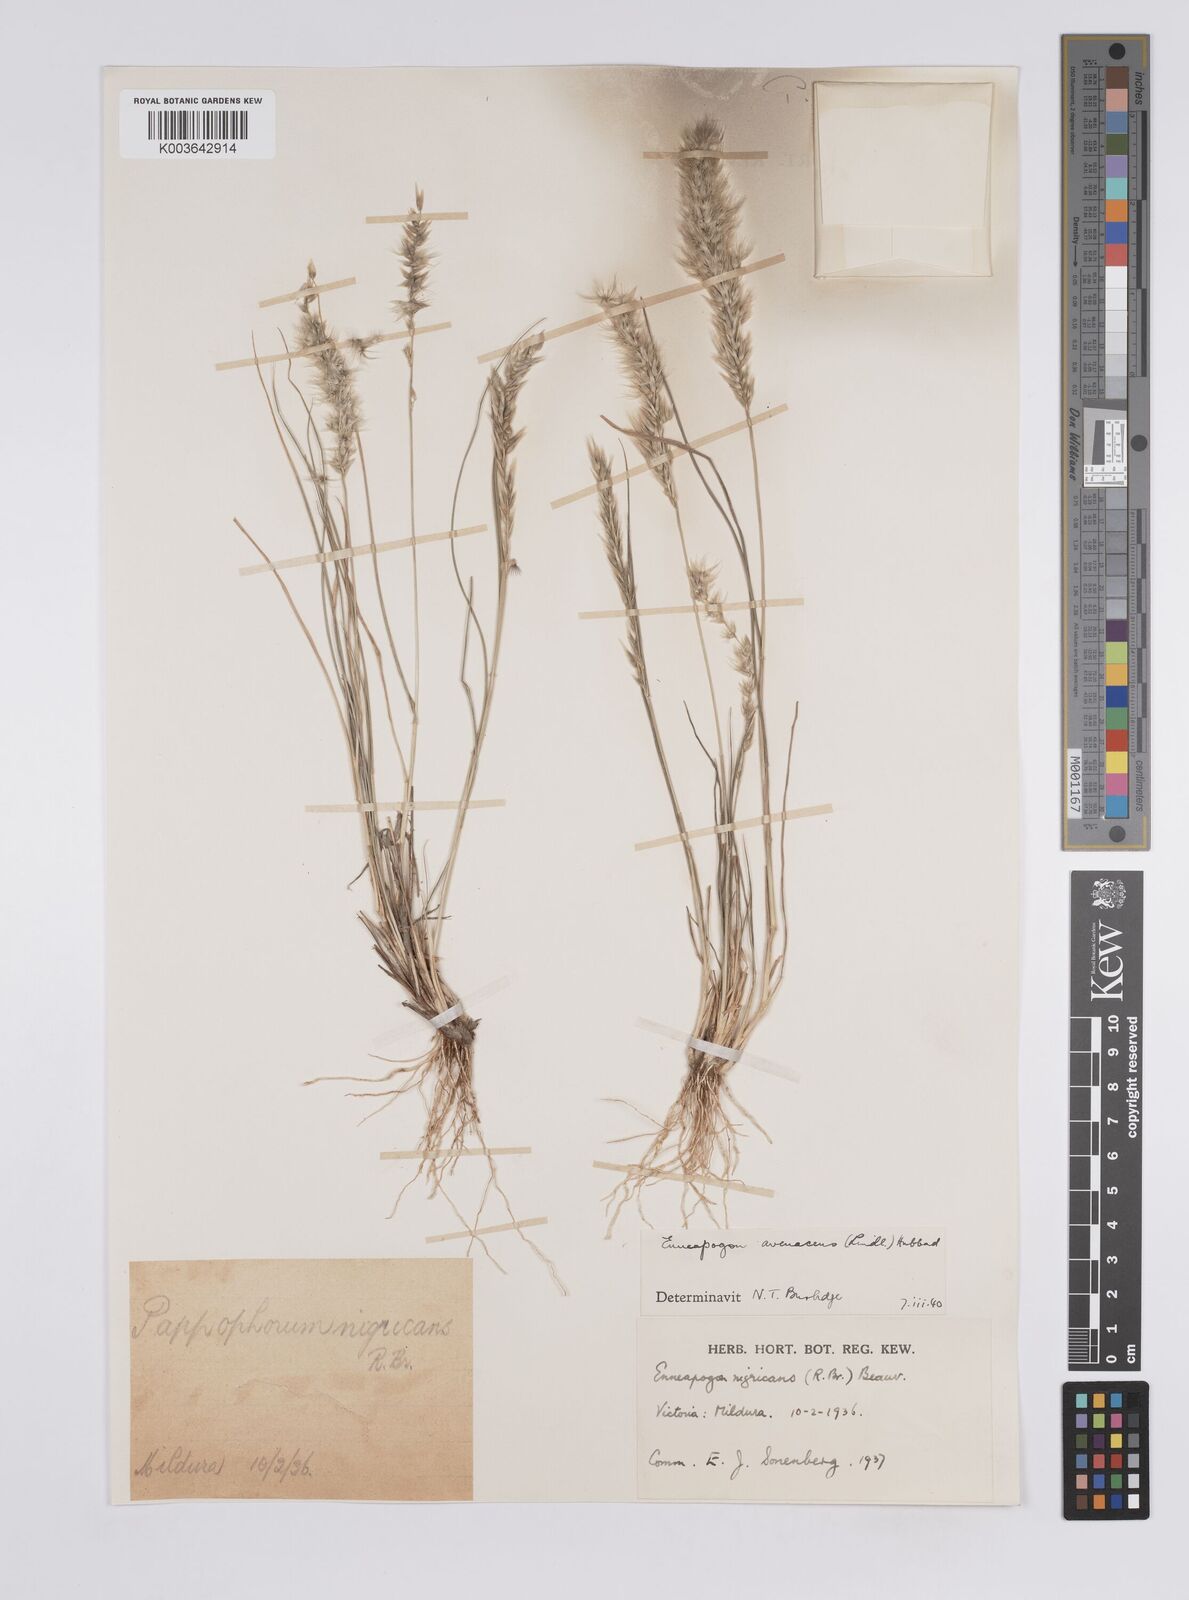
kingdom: Plantae
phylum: Tracheophyta
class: Liliopsida
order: Poales
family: Poaceae
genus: Enneapogon
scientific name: Enneapogon avenaceus
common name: Hairy oat grass
